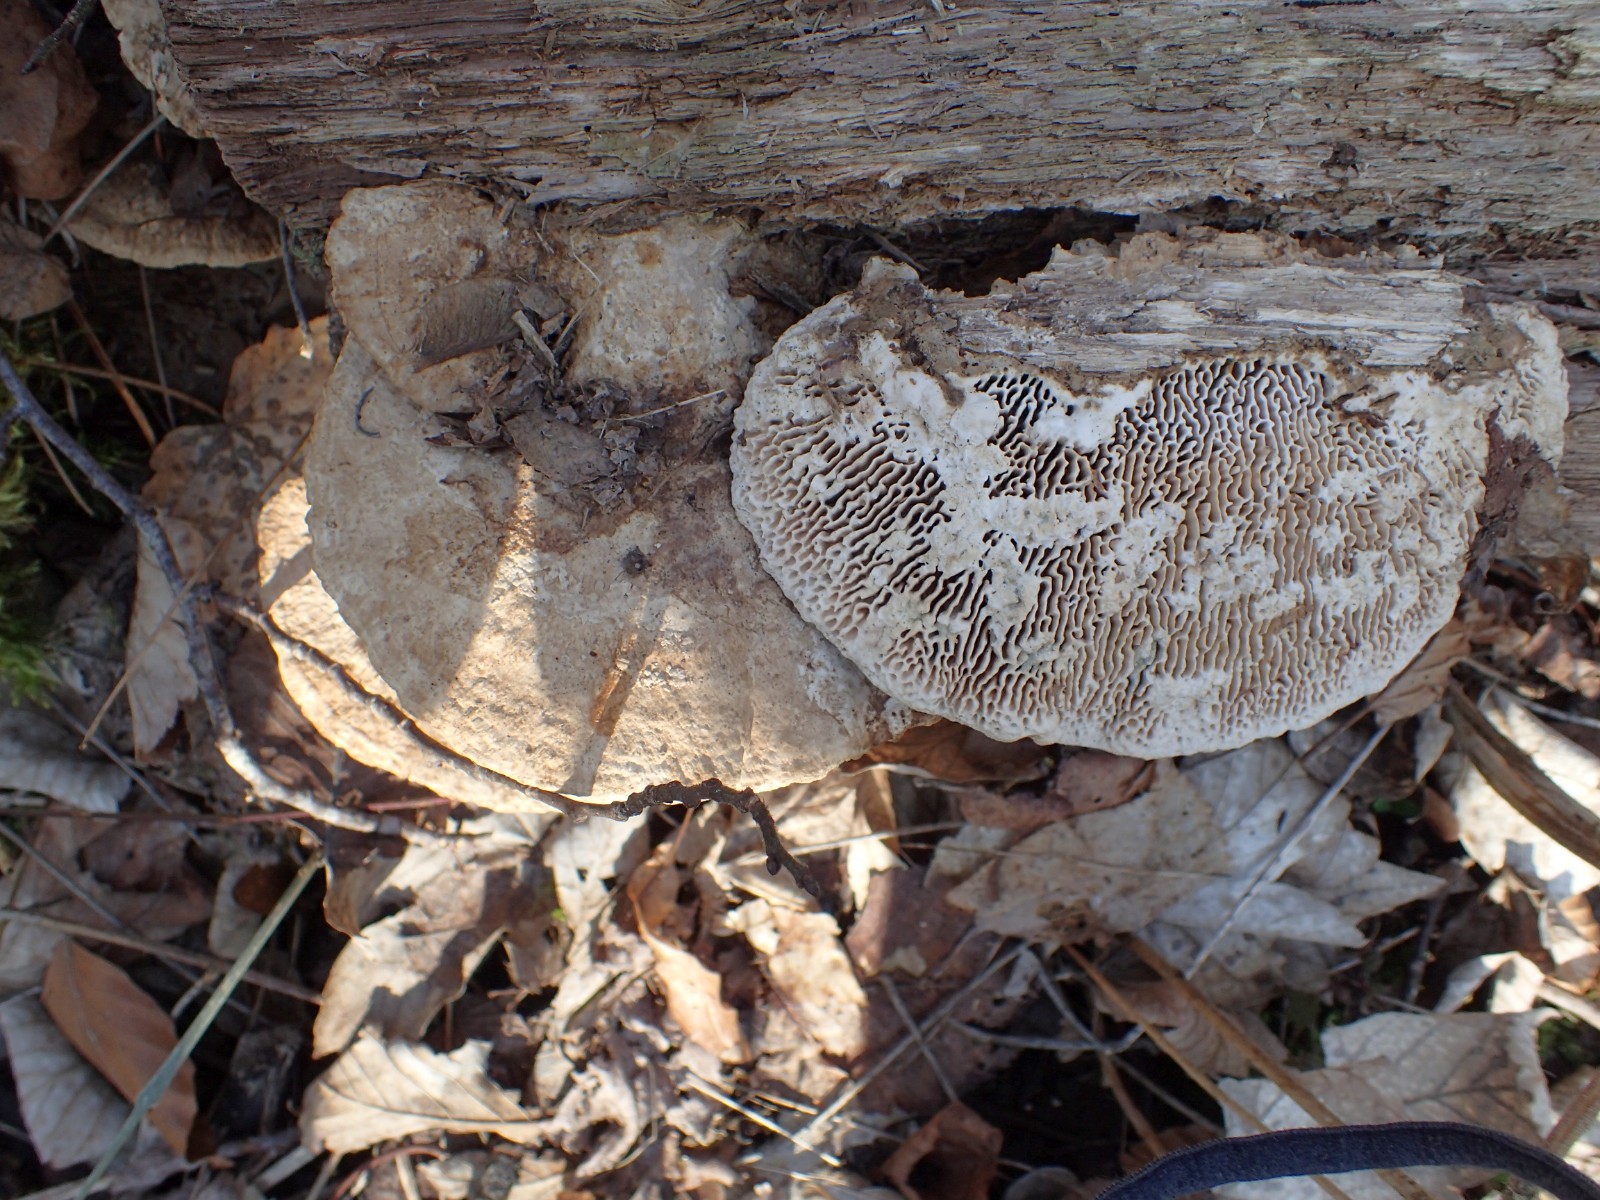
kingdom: Fungi
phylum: Basidiomycota
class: Agaricomycetes
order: Polyporales
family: Fomitopsidaceae
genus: Daedalea
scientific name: Daedalea quercina
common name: ege-labyrintsvamp
